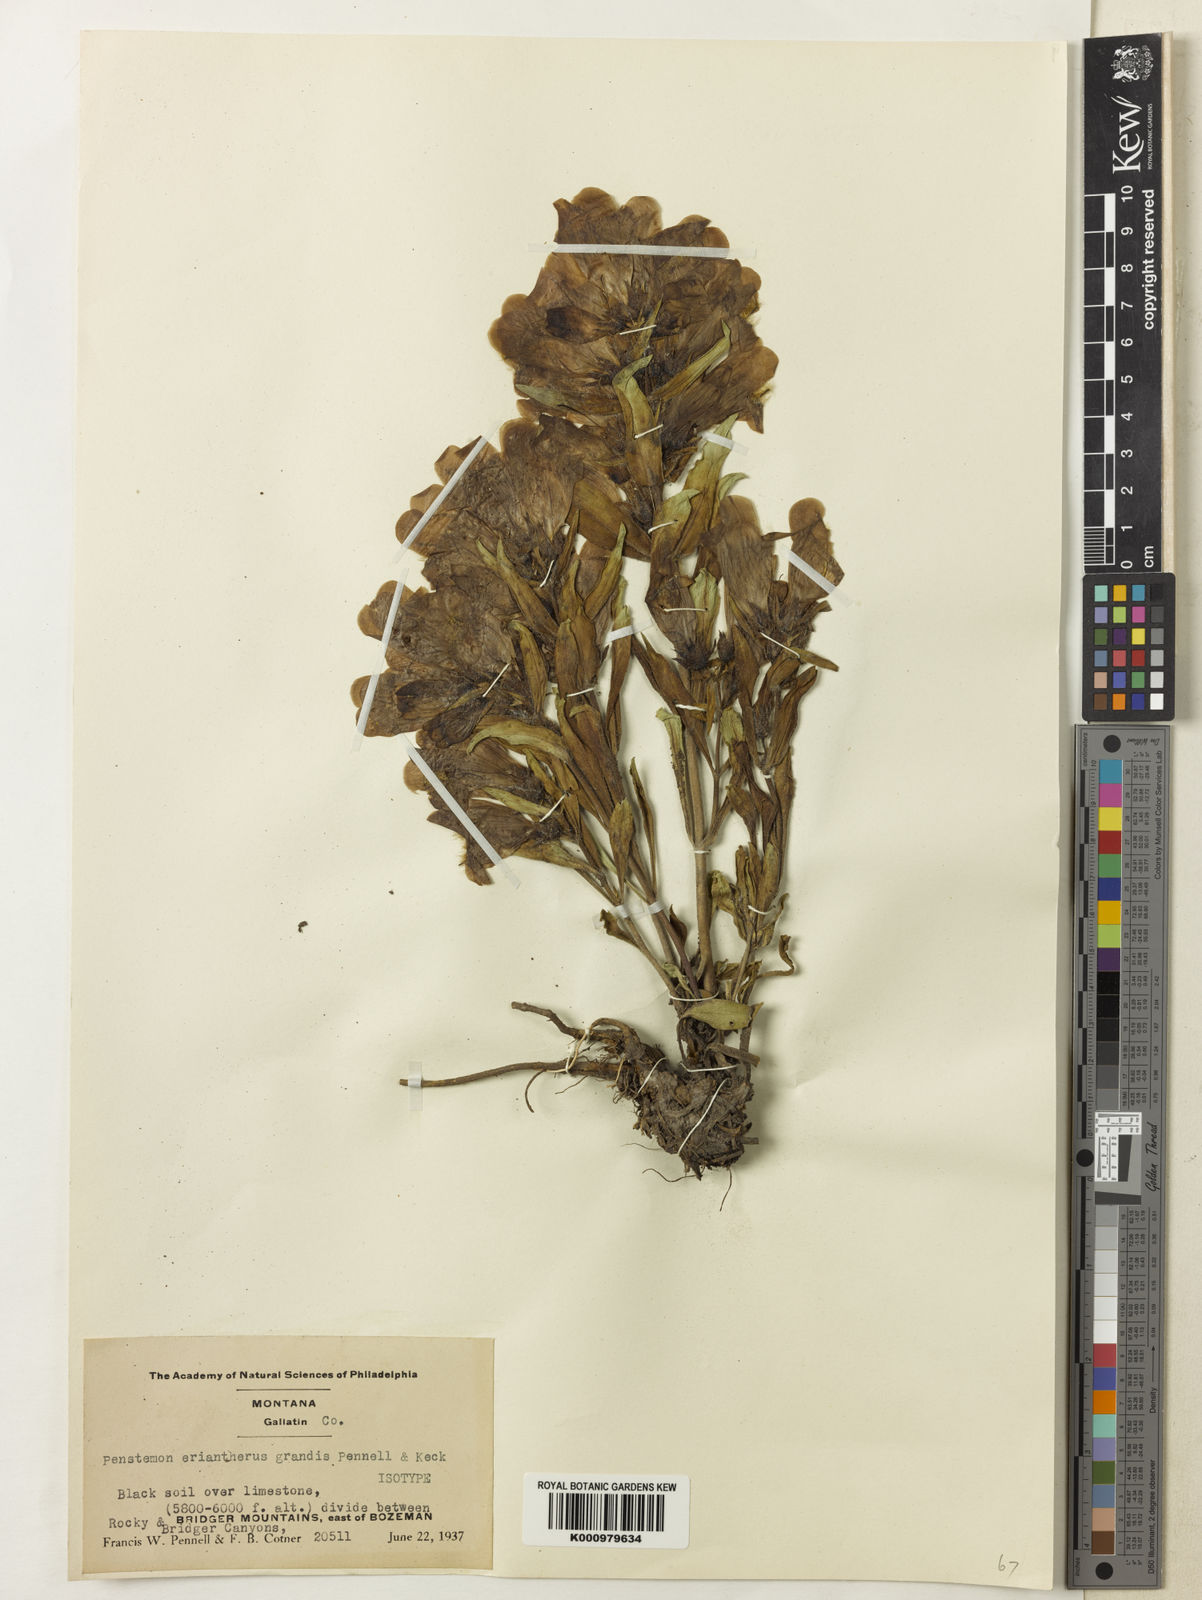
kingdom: Plantae
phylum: Tracheophyta
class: Magnoliopsida
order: Lamiales
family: Plantaginaceae
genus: Penstemon
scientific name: Penstemon
